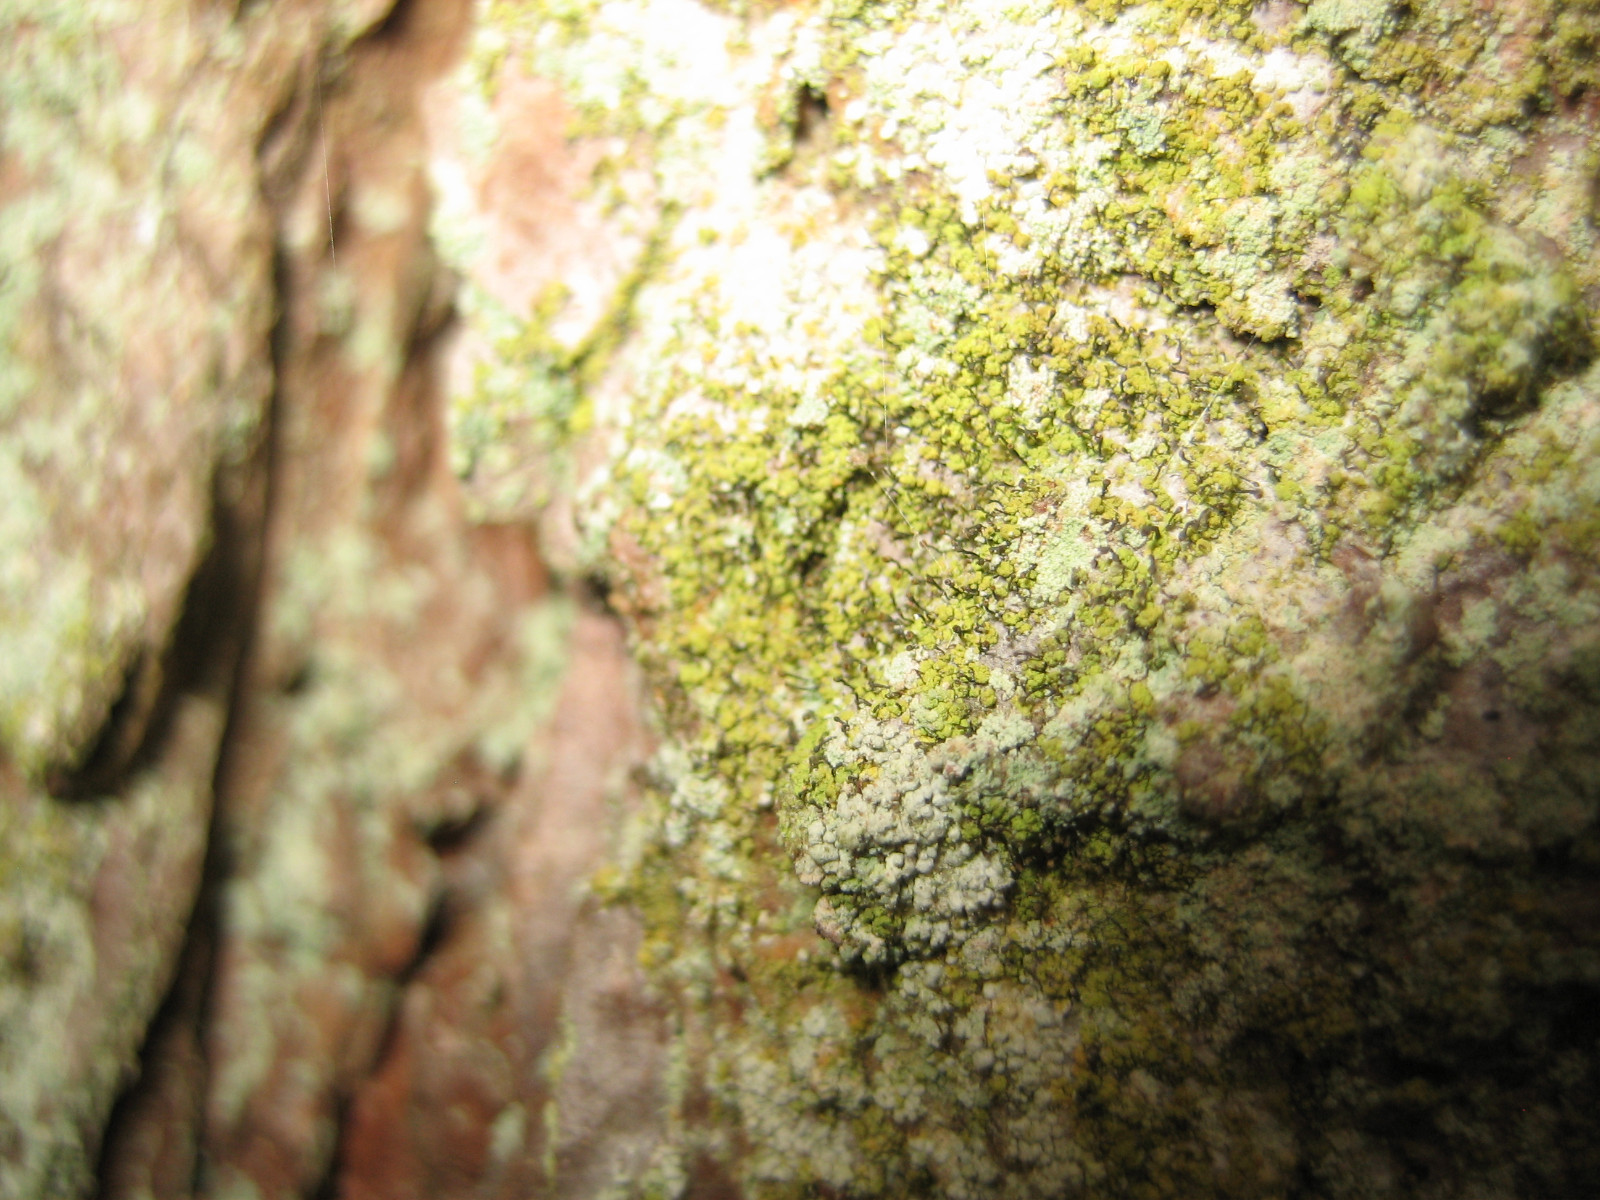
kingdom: Fungi
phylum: Ascomycota
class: Coniocybomycetes
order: Coniocybales
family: Coniocybaceae
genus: Chaenotheca
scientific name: Chaenotheca chrysocephala
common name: citrongul knappenålslav
